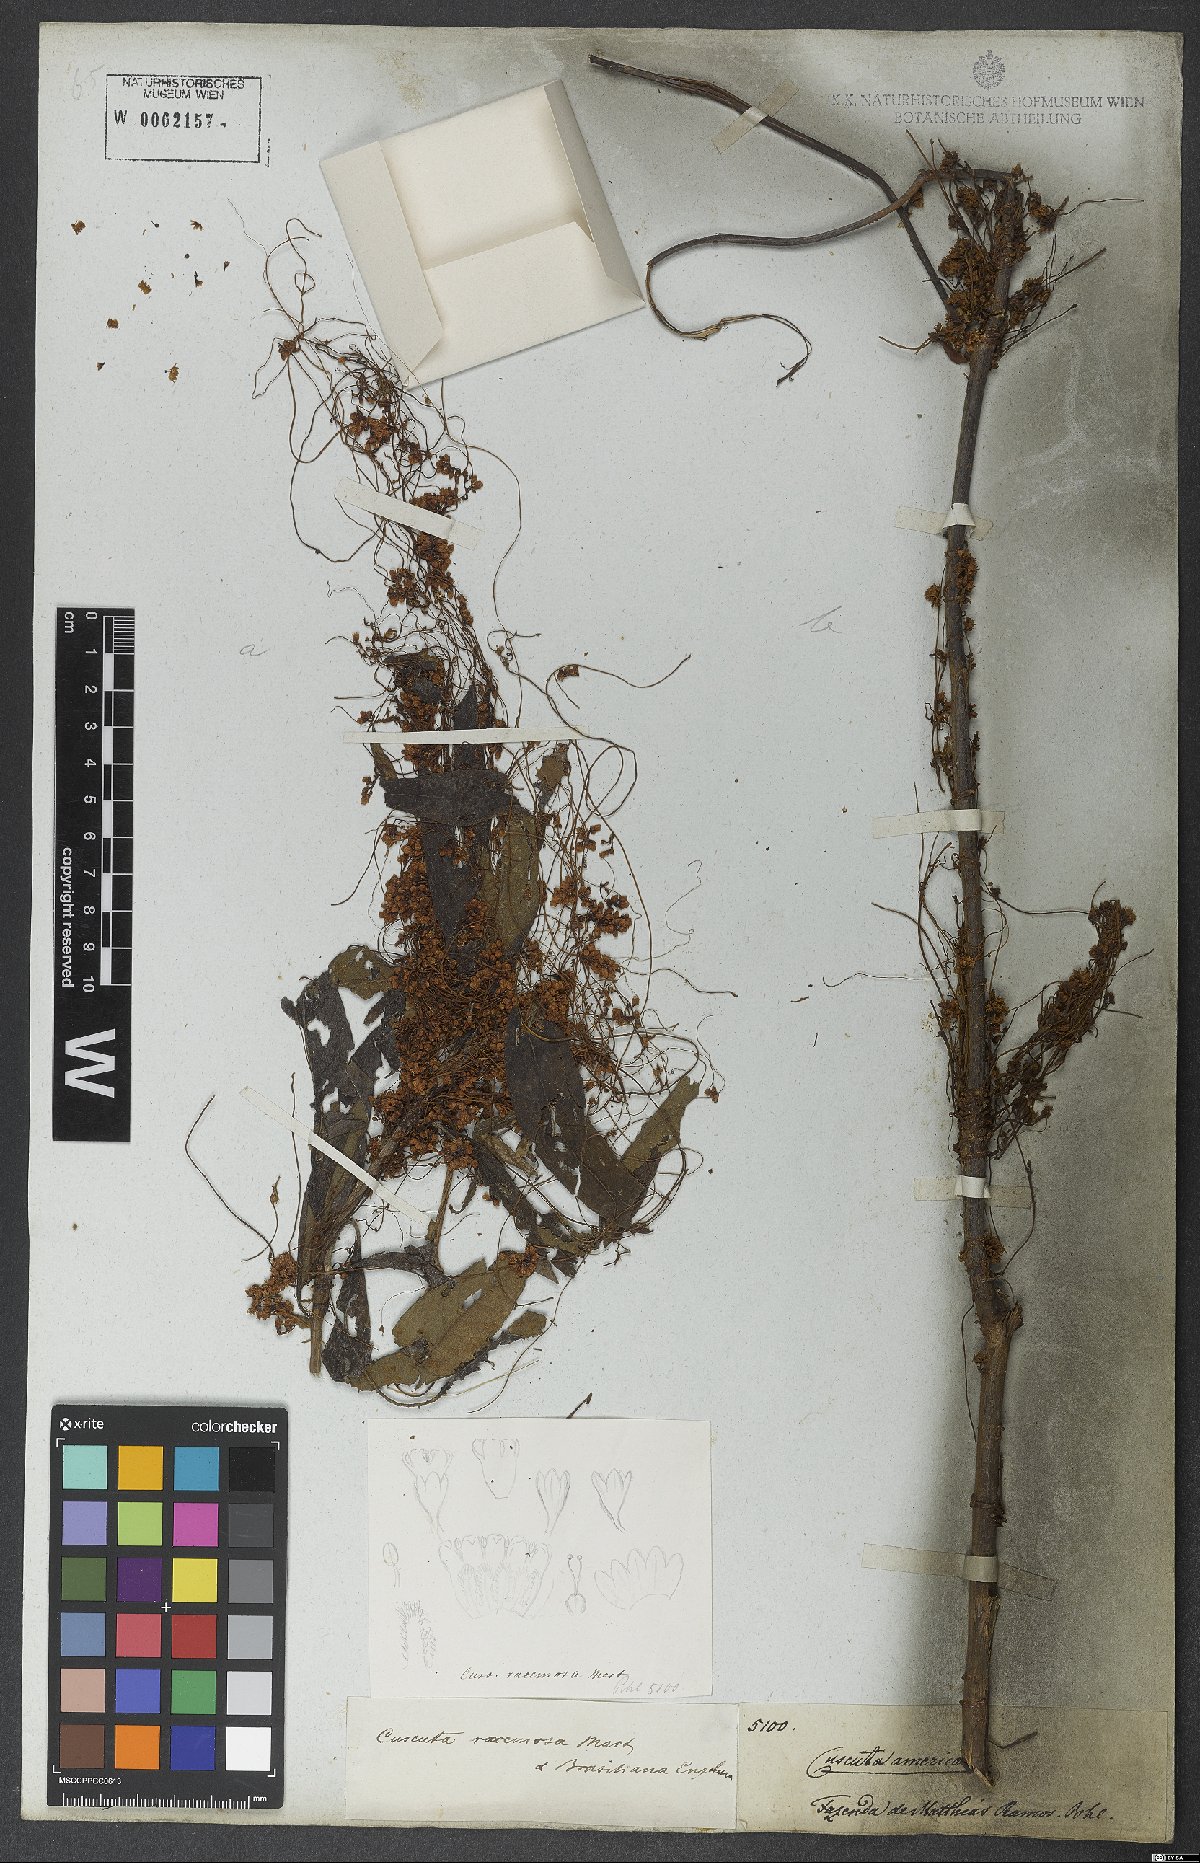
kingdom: Plantae
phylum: Tracheophyta
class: Magnoliopsida
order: Solanales
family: Convolvulaceae
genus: Cuscuta
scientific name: Cuscuta racemosa
